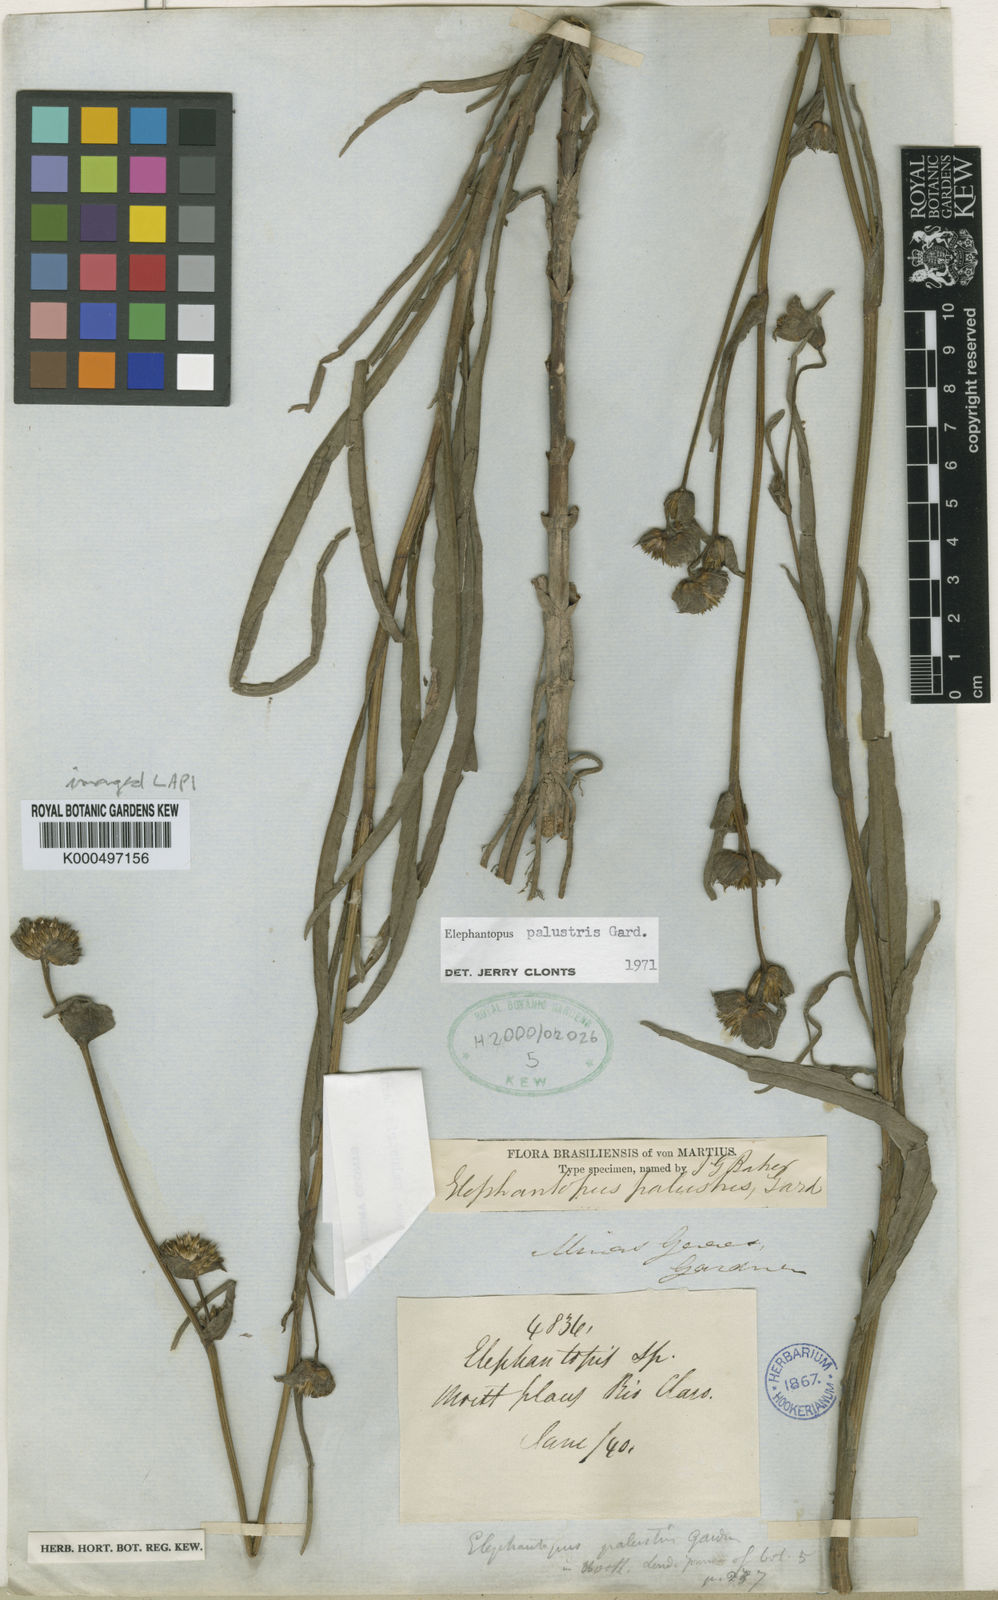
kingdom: Plantae
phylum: Tracheophyta
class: Magnoliopsida
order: Asterales
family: Asteraceae
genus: Elephantopus
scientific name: Elephantopus palustris
